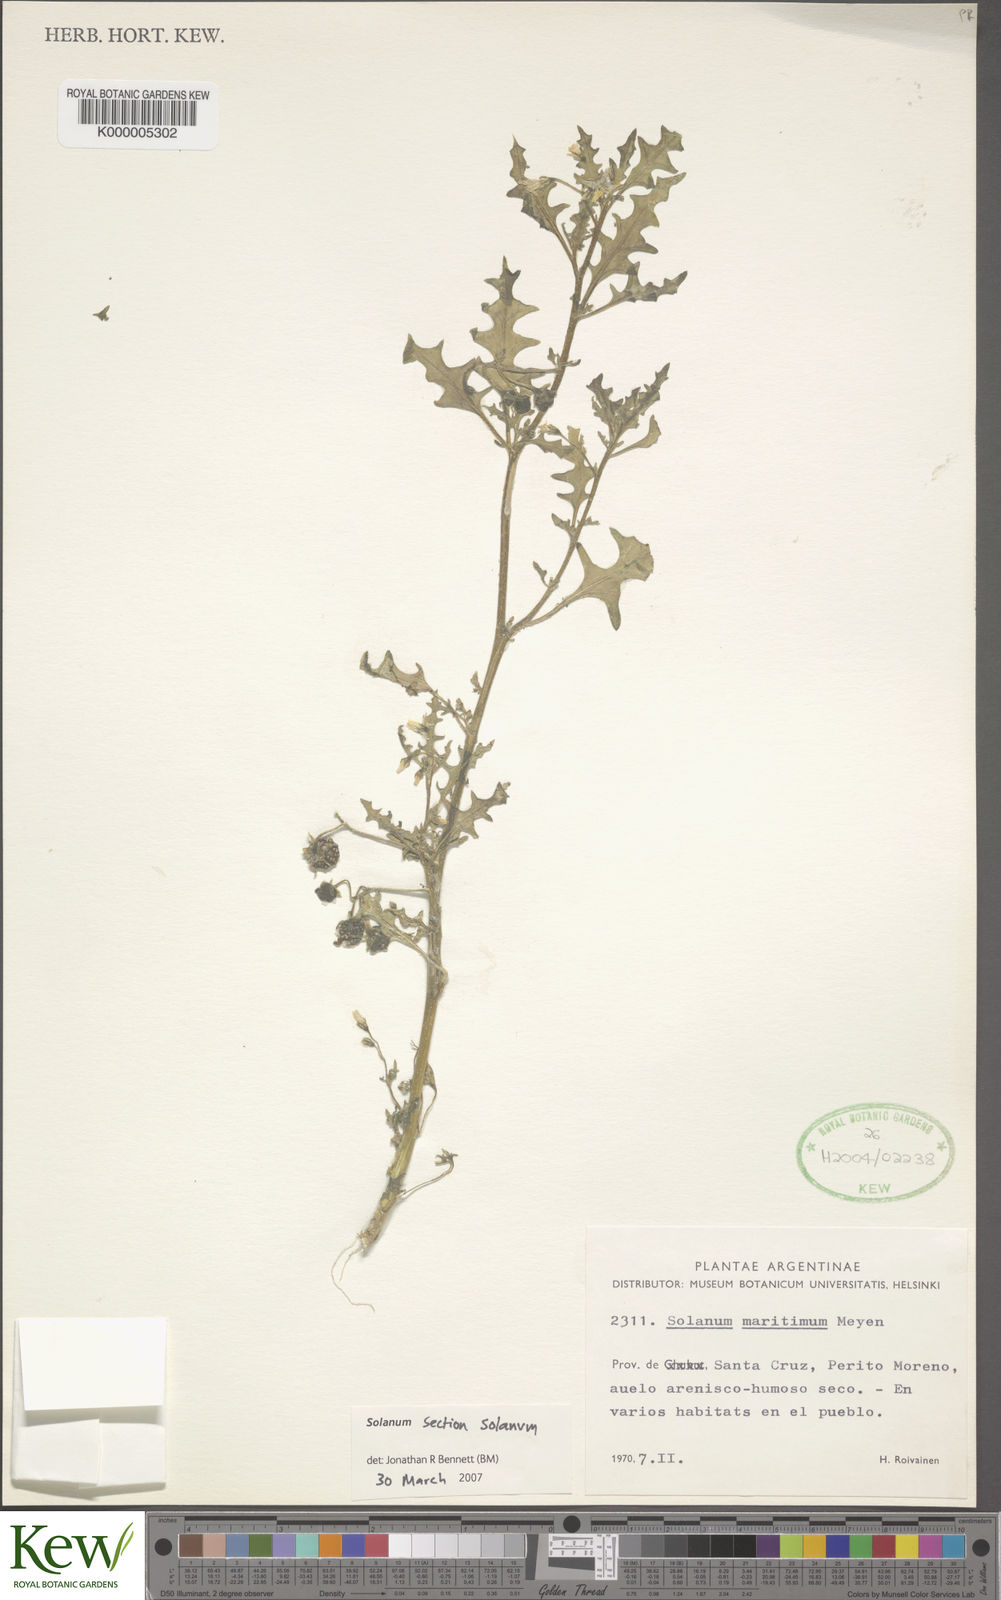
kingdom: Plantae
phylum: Tracheophyta
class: Magnoliopsida
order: Solanales
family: Solanaceae
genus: Solanum
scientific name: Solanum pinnatum
